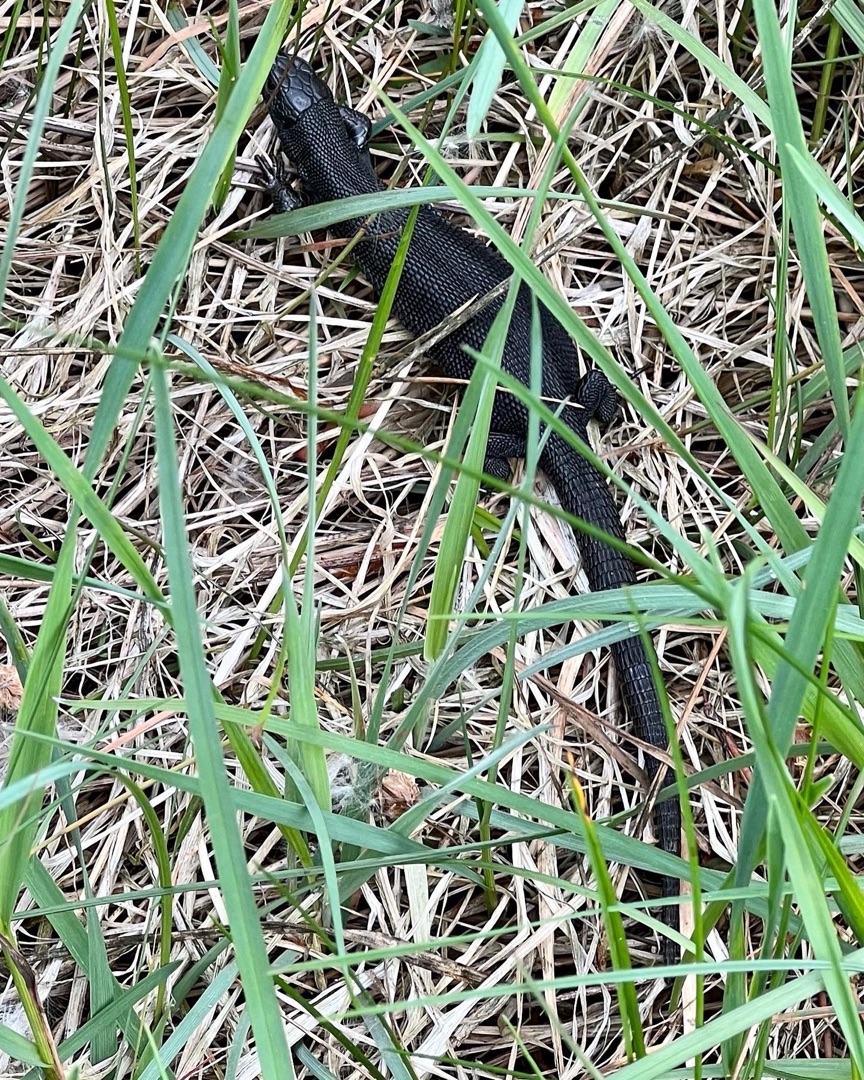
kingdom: Animalia
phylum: Chordata
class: Squamata
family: Lacertidae
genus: Zootoca
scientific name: Zootoca vivipara
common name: Skovfirben
